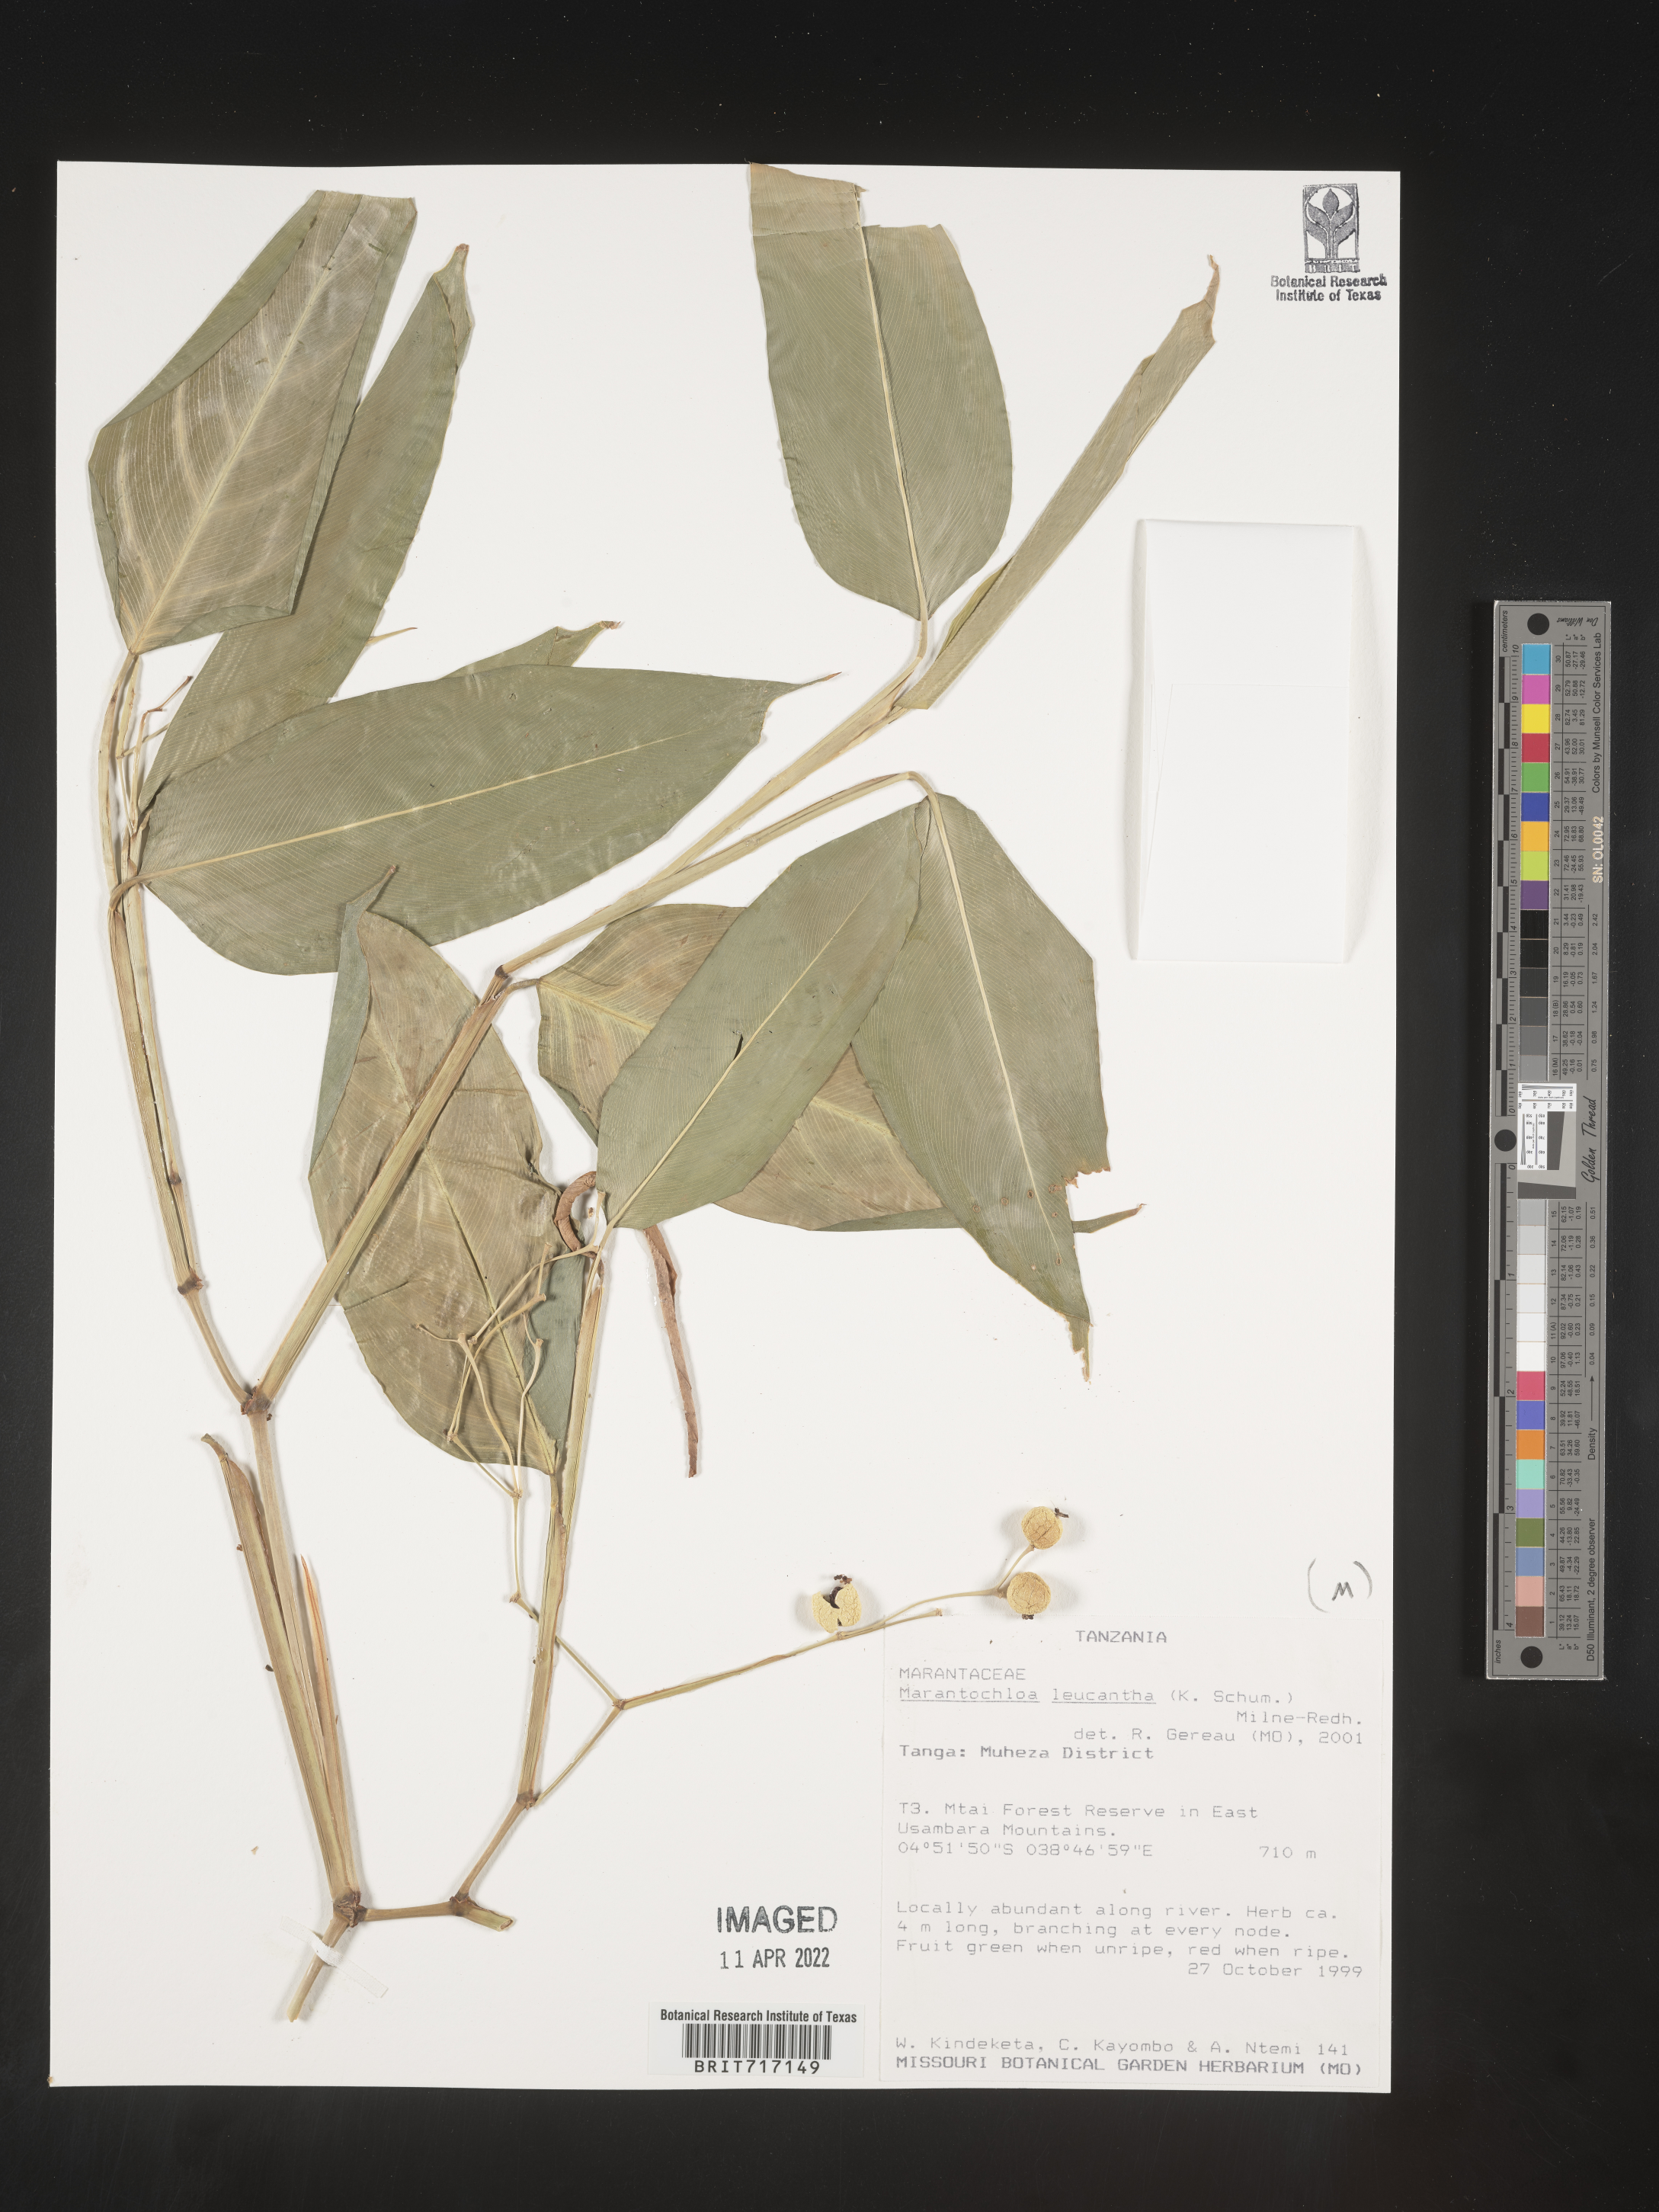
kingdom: Plantae
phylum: Tracheophyta
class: Liliopsida
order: Zingiberales
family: Marantaceae
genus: Marantochloa
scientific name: Marantochloa
